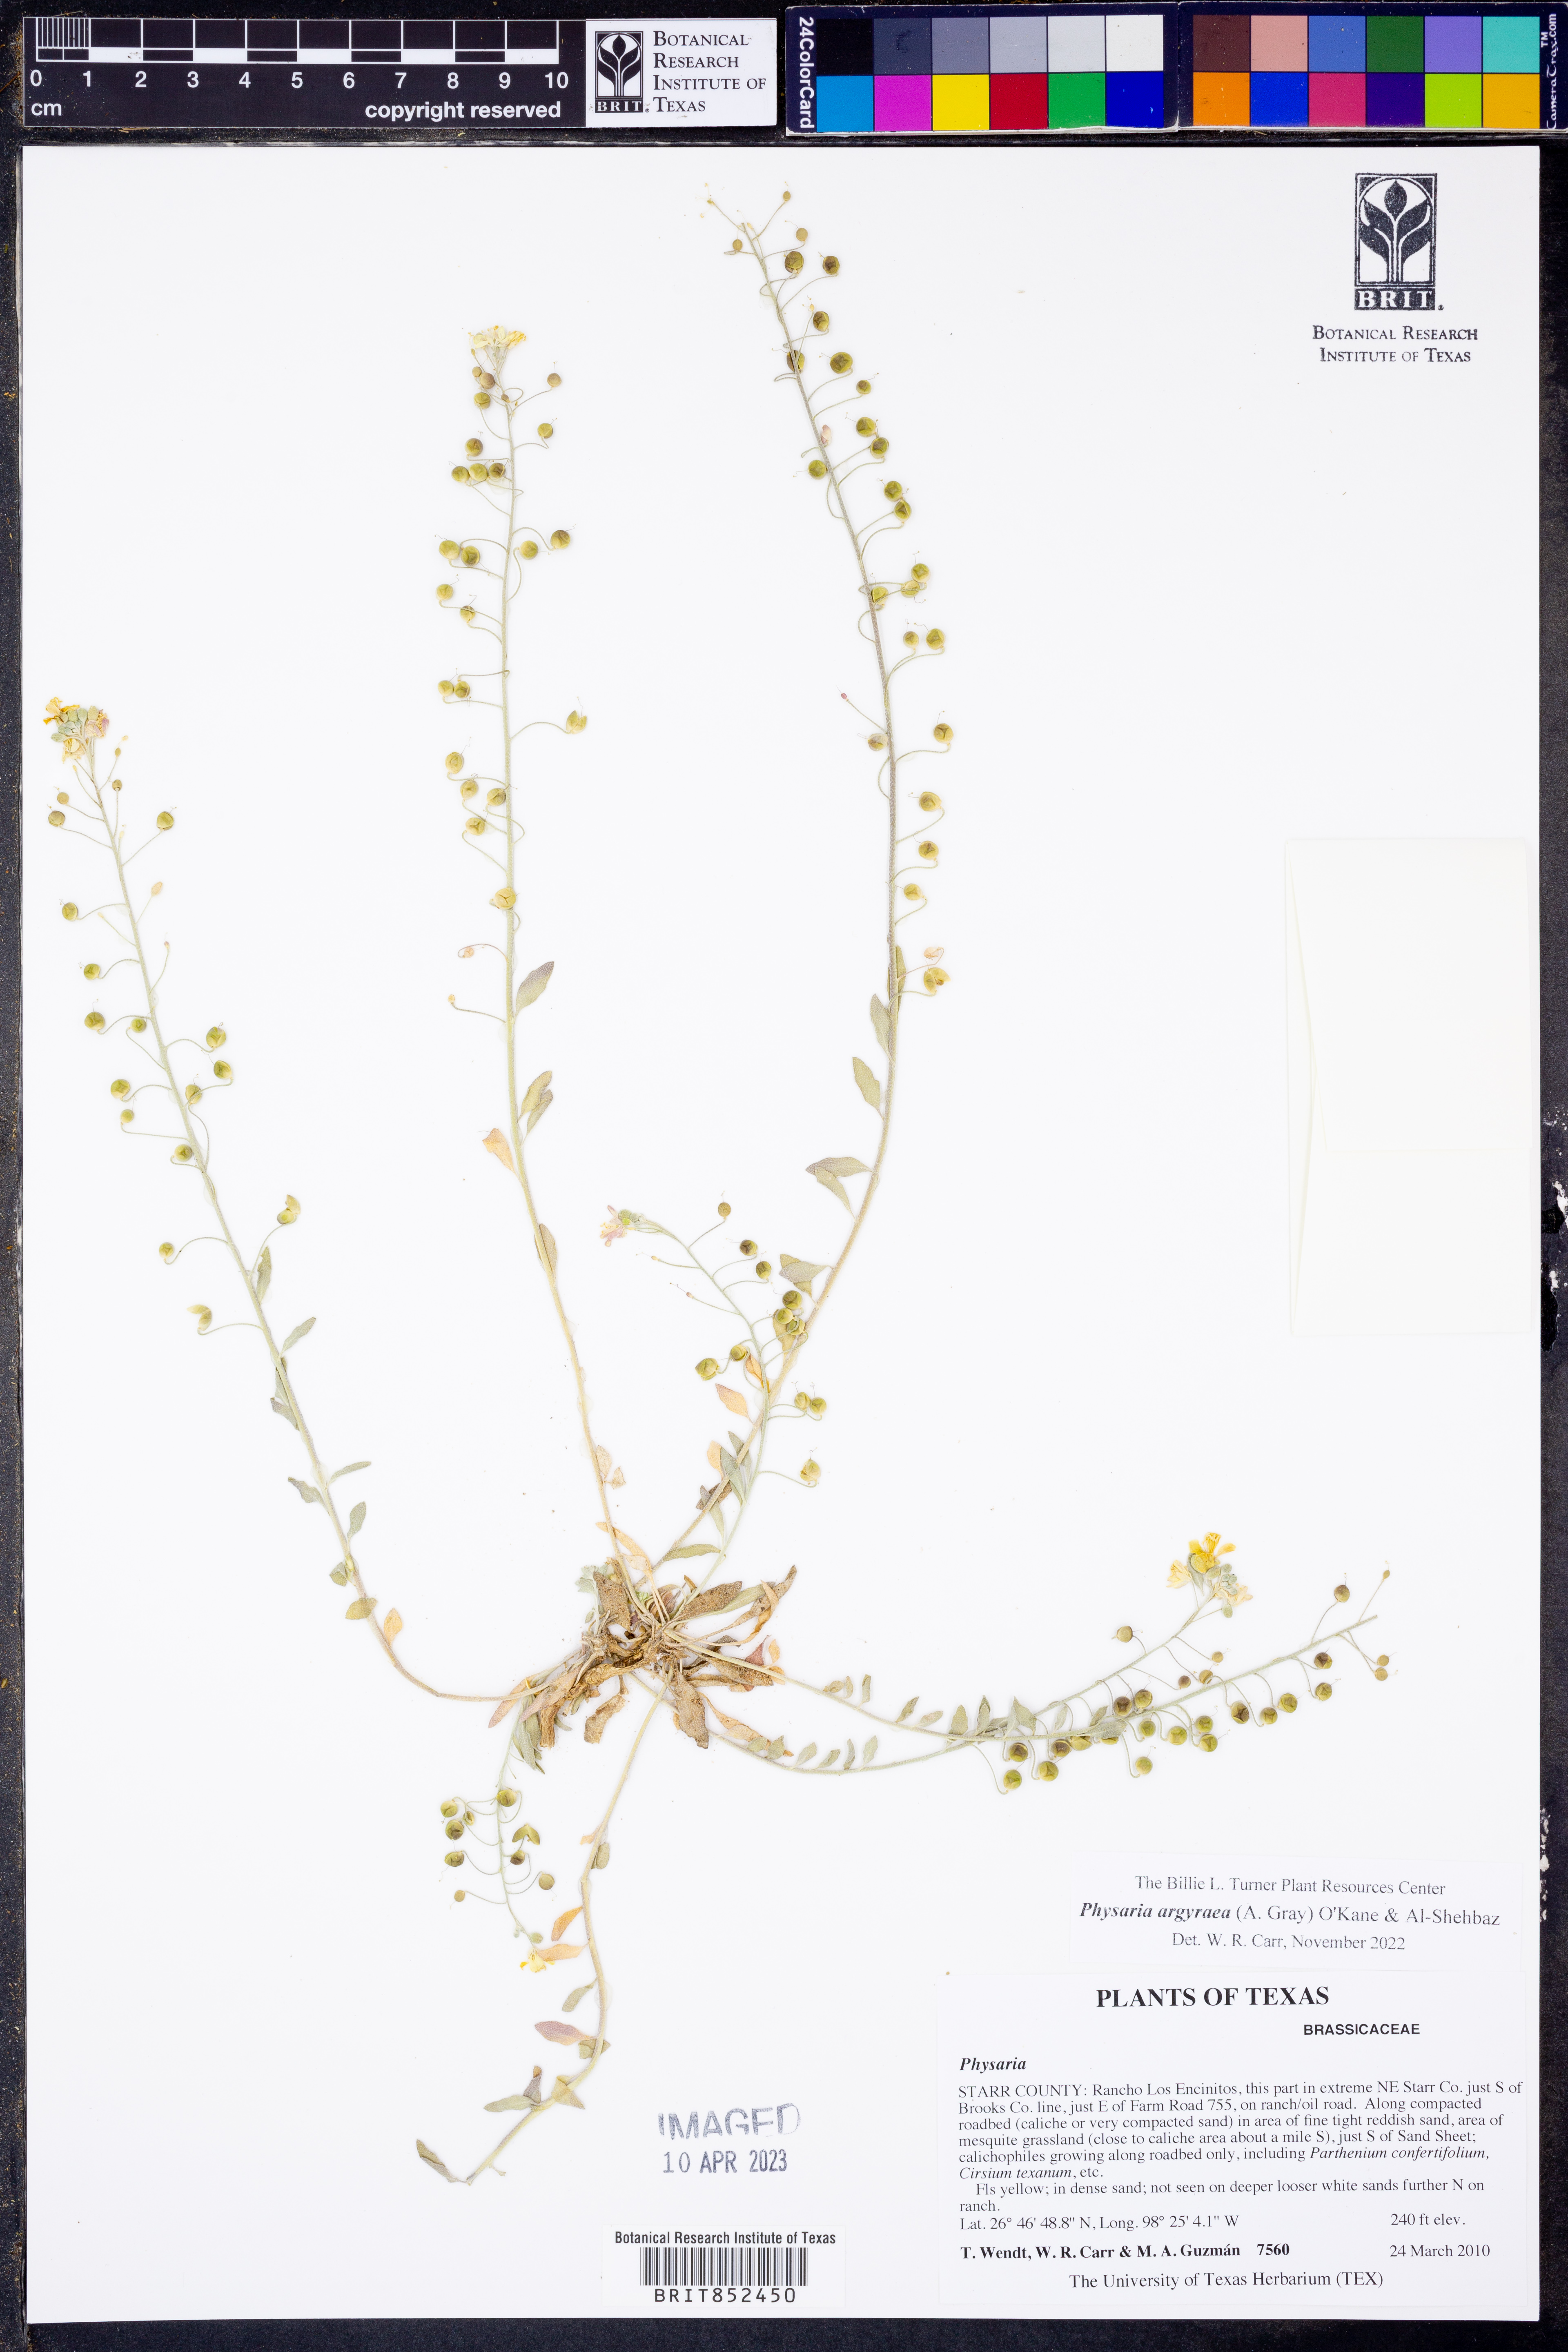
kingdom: Plantae
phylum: Tracheophyta
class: Magnoliopsida
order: Brassicales
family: Brassicaceae
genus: Physaria
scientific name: Physaria argyraea
